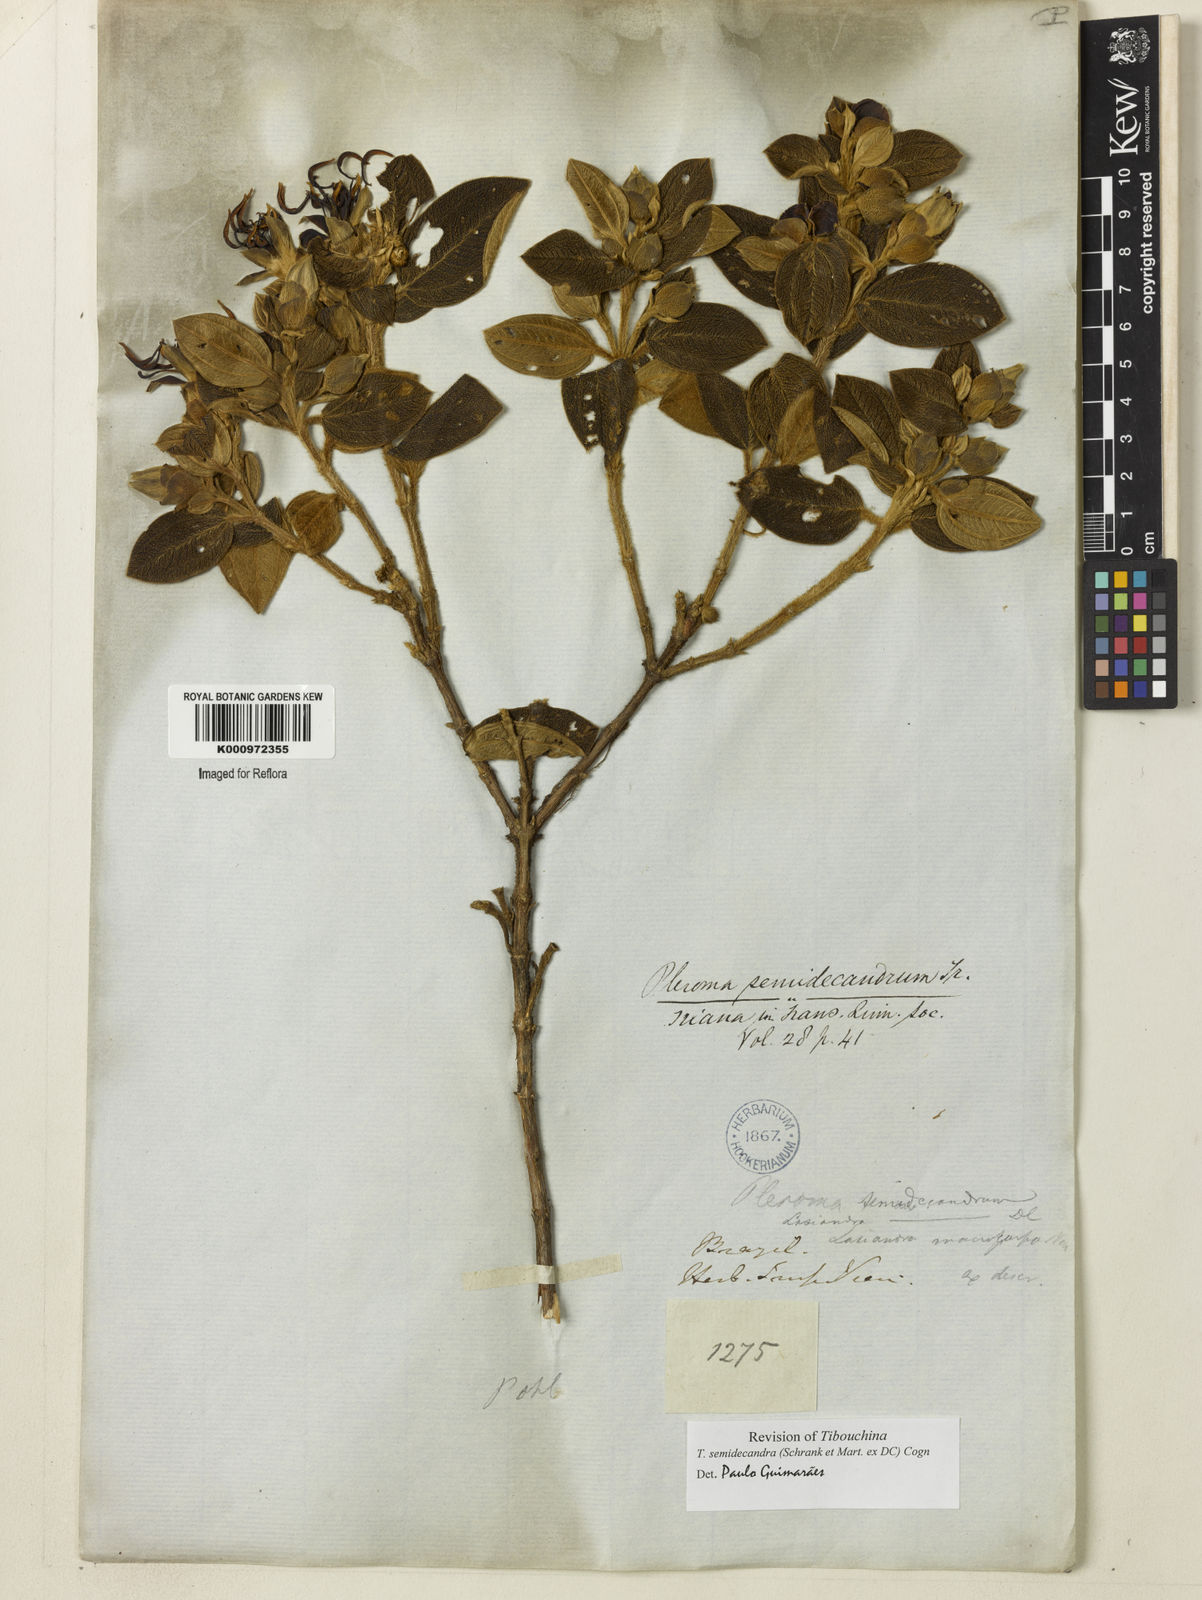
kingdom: Plantae
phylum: Tracheophyta
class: Magnoliopsida
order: Myrtales
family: Melastomataceae
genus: Pleroma
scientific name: Pleroma semidecandrum
